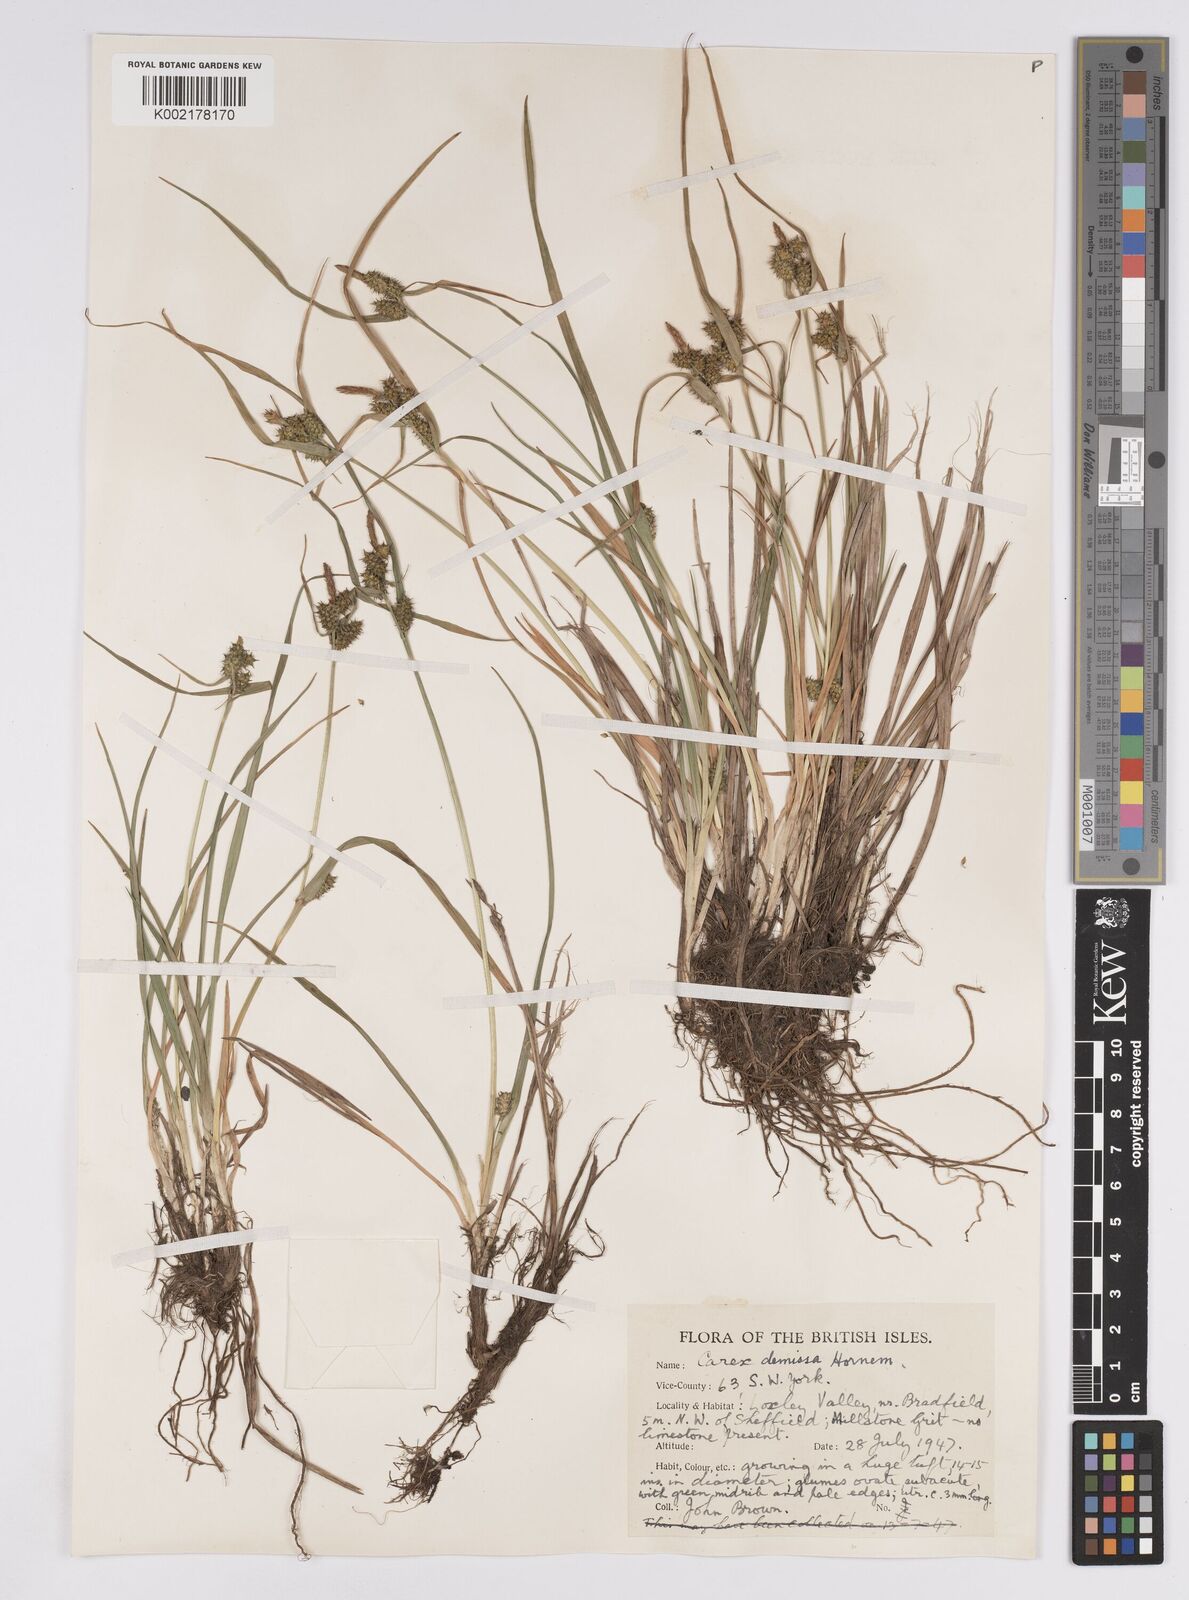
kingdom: Plantae
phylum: Tracheophyta
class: Liliopsida
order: Poales
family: Cyperaceae
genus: Carex
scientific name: Carex demissa
